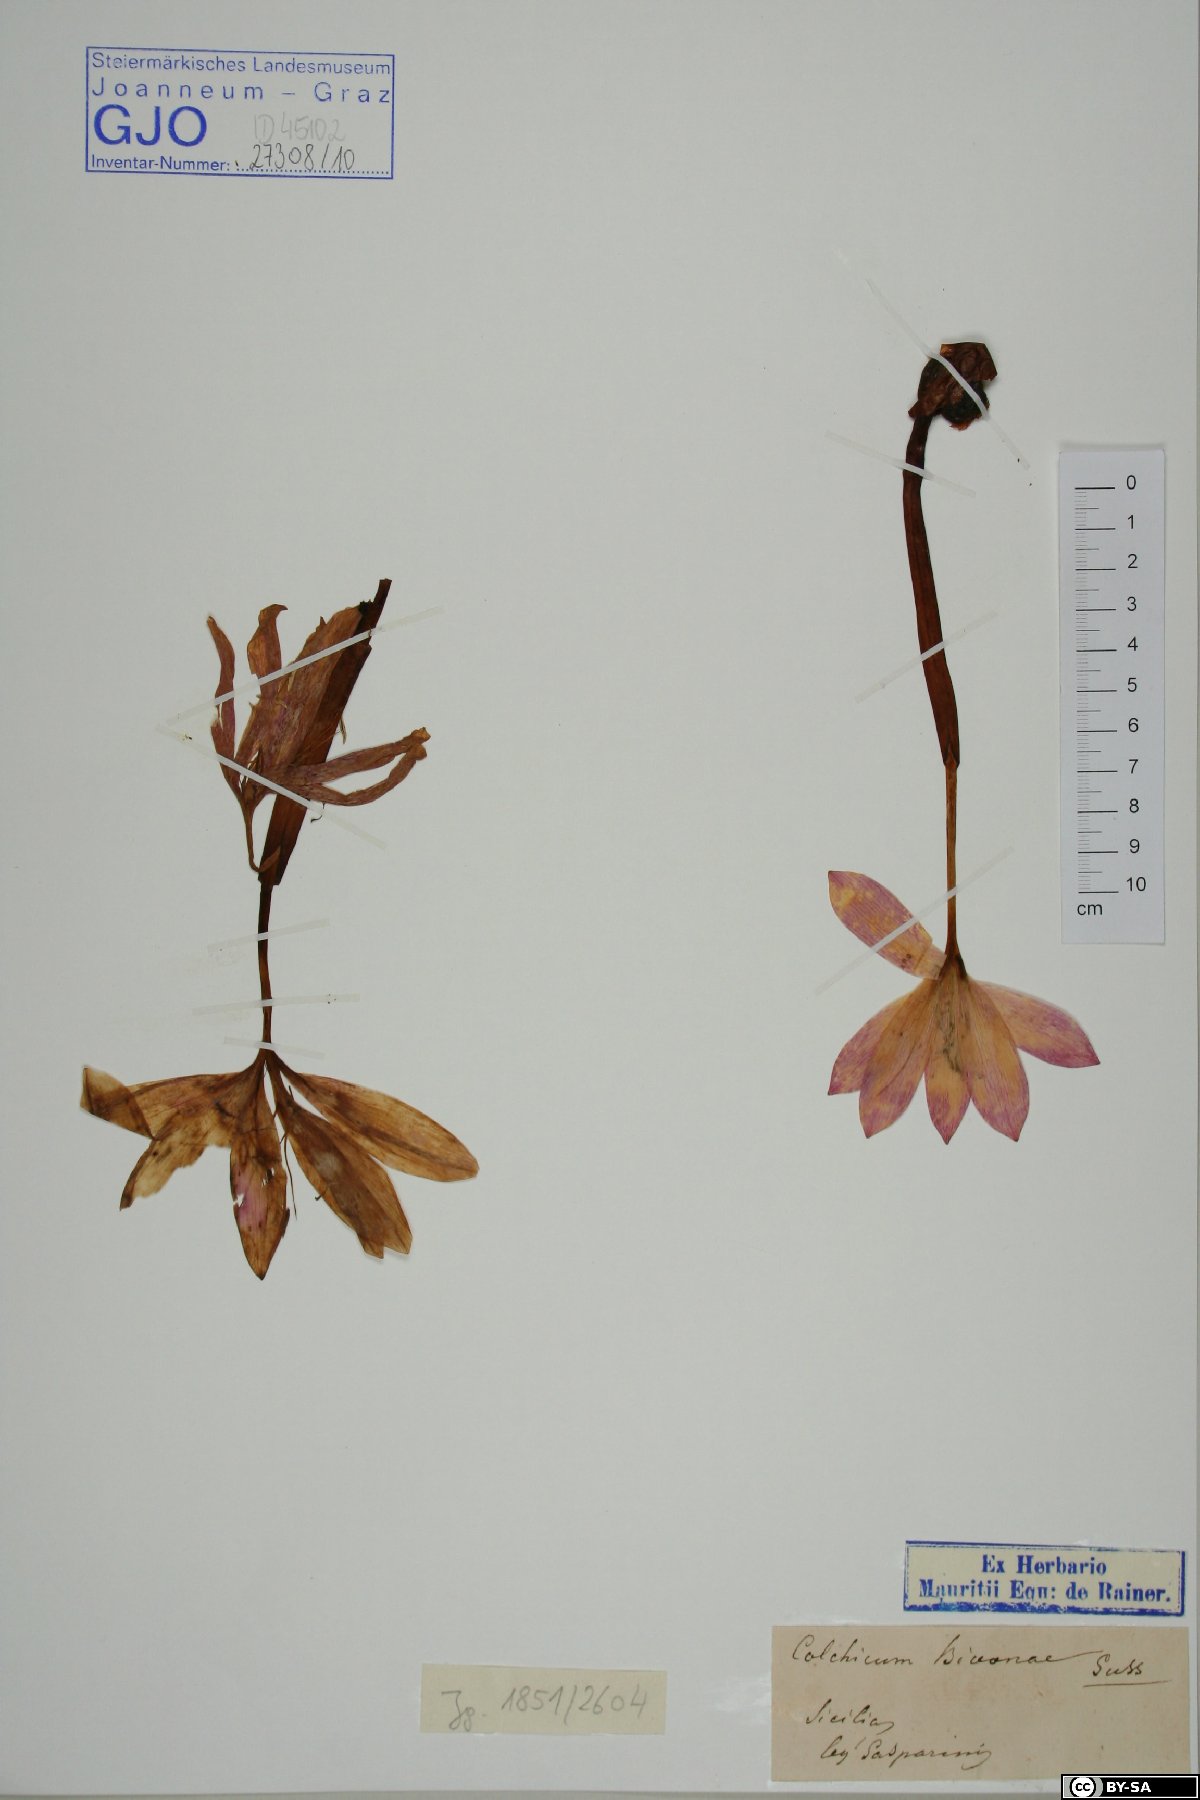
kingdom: Plantae
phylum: Tracheophyta
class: Liliopsida
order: Liliales
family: Colchicaceae
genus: Colchicum
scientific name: Colchicum bivonae
